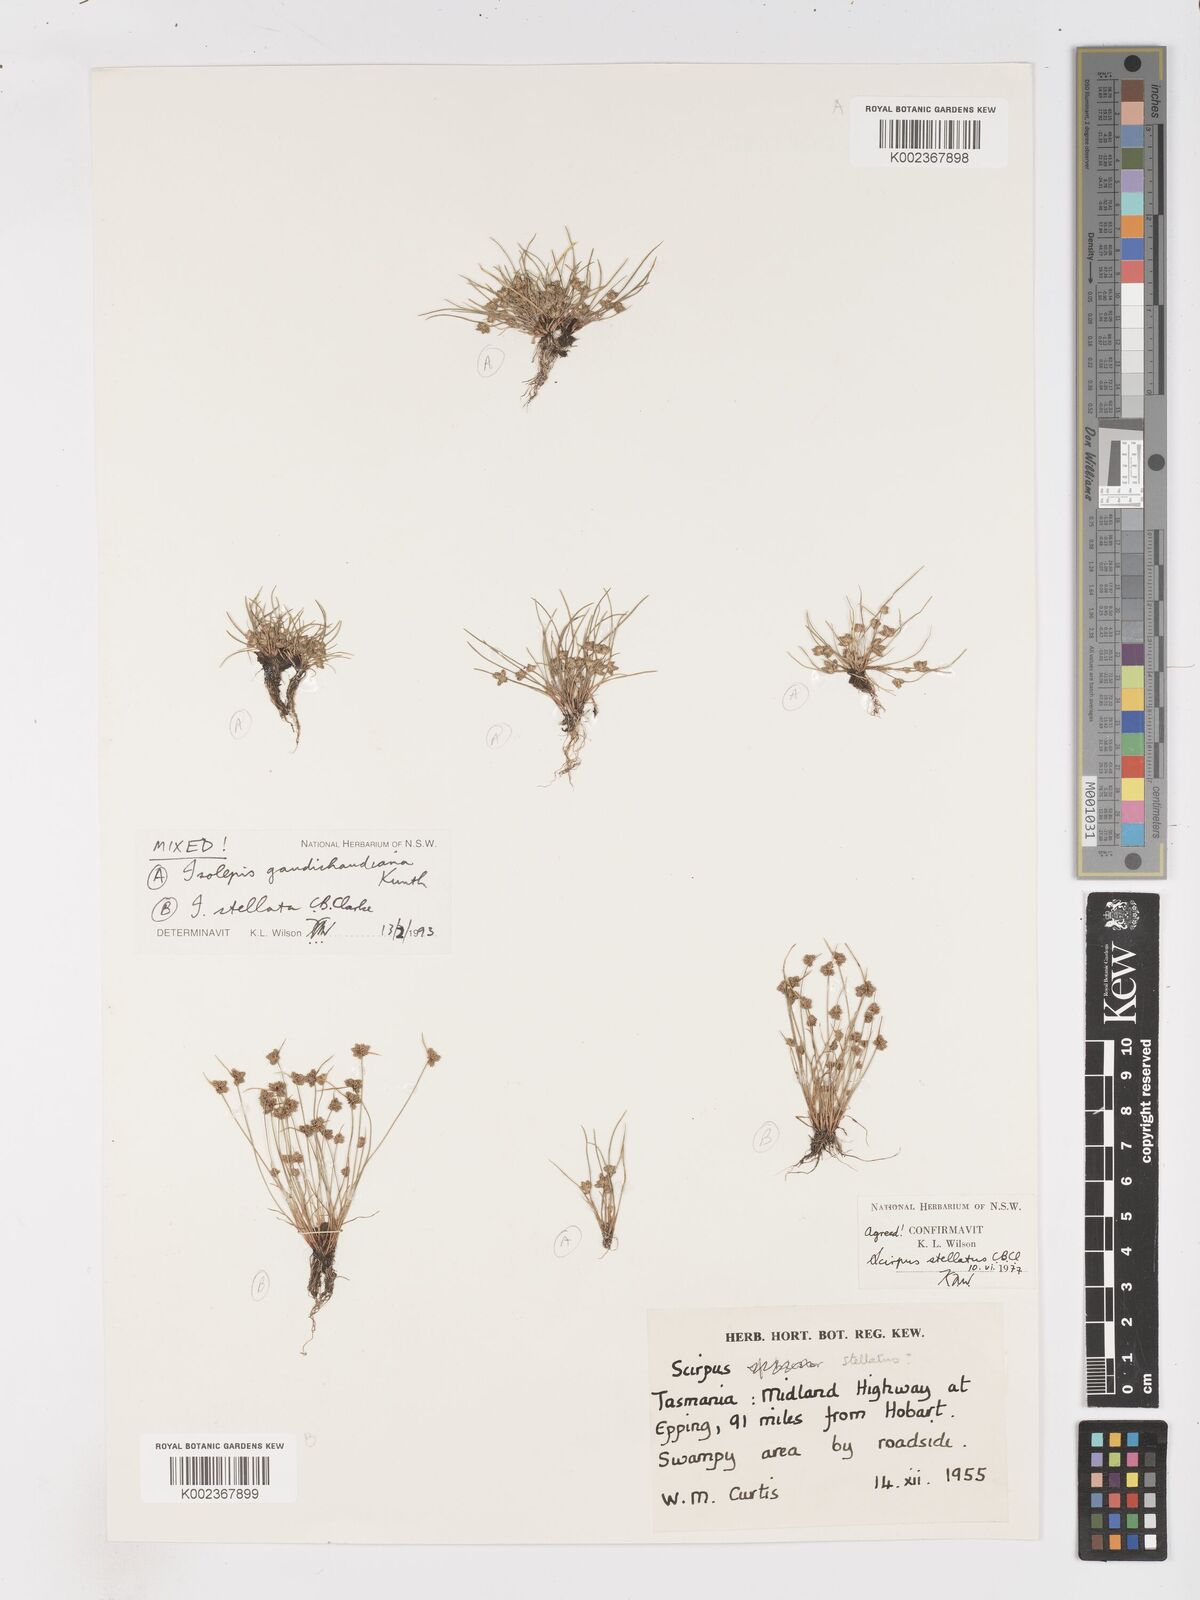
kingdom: Plantae
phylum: Tracheophyta
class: Liliopsida
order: Poales
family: Cyperaceae
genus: Isolepis
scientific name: Isolepis stellata
